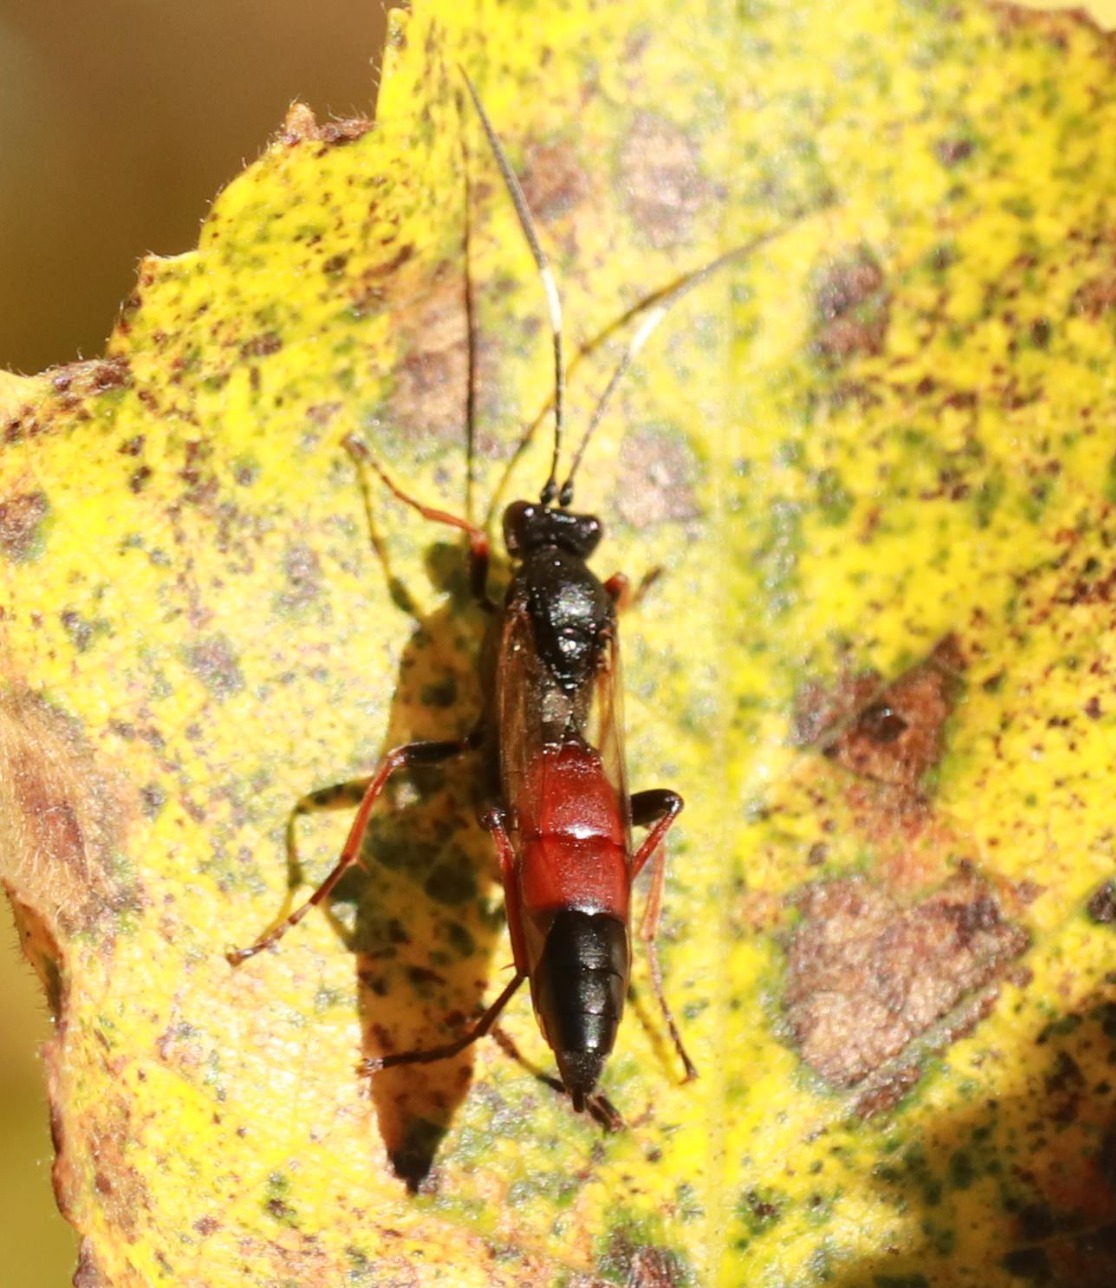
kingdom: Animalia
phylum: Arthropoda
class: Insecta
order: Hymenoptera
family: Ichneumonidae
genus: Stenichneumon
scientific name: Stenichneumon culpator
